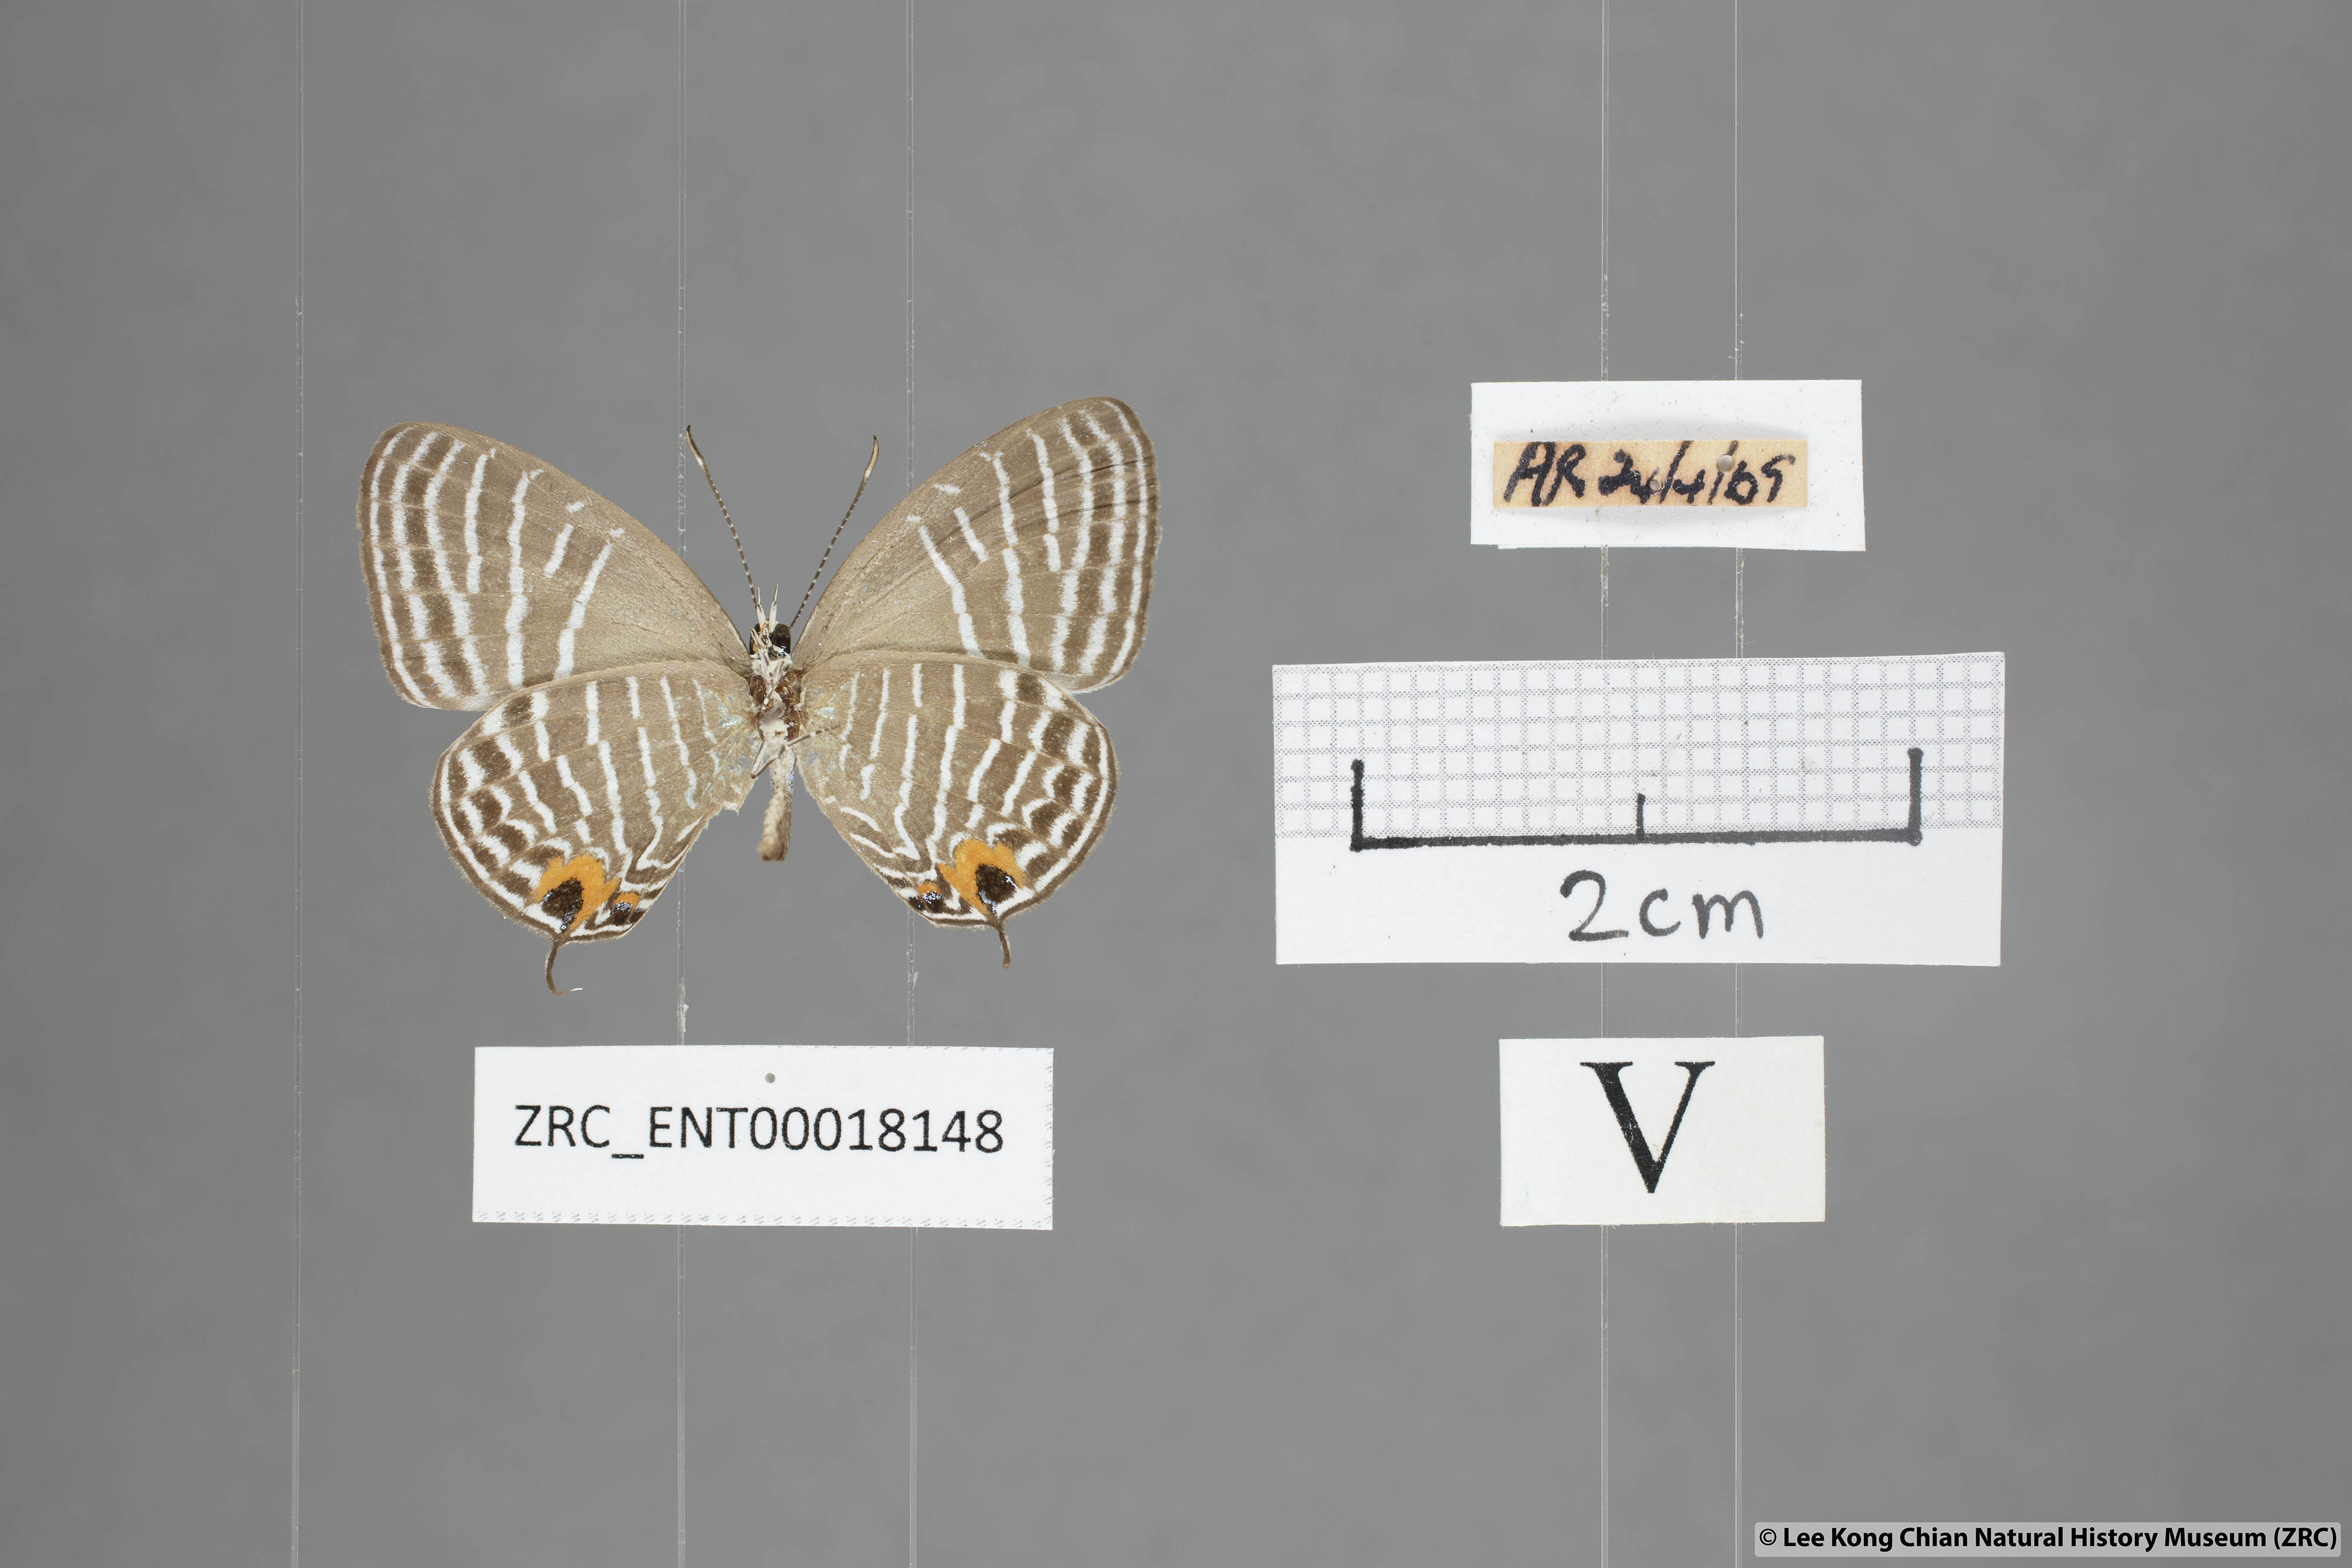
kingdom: Animalia
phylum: Arthropoda
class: Insecta
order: Lepidoptera
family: Lycaenidae
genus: Jamides
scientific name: Jamides parasaturata
